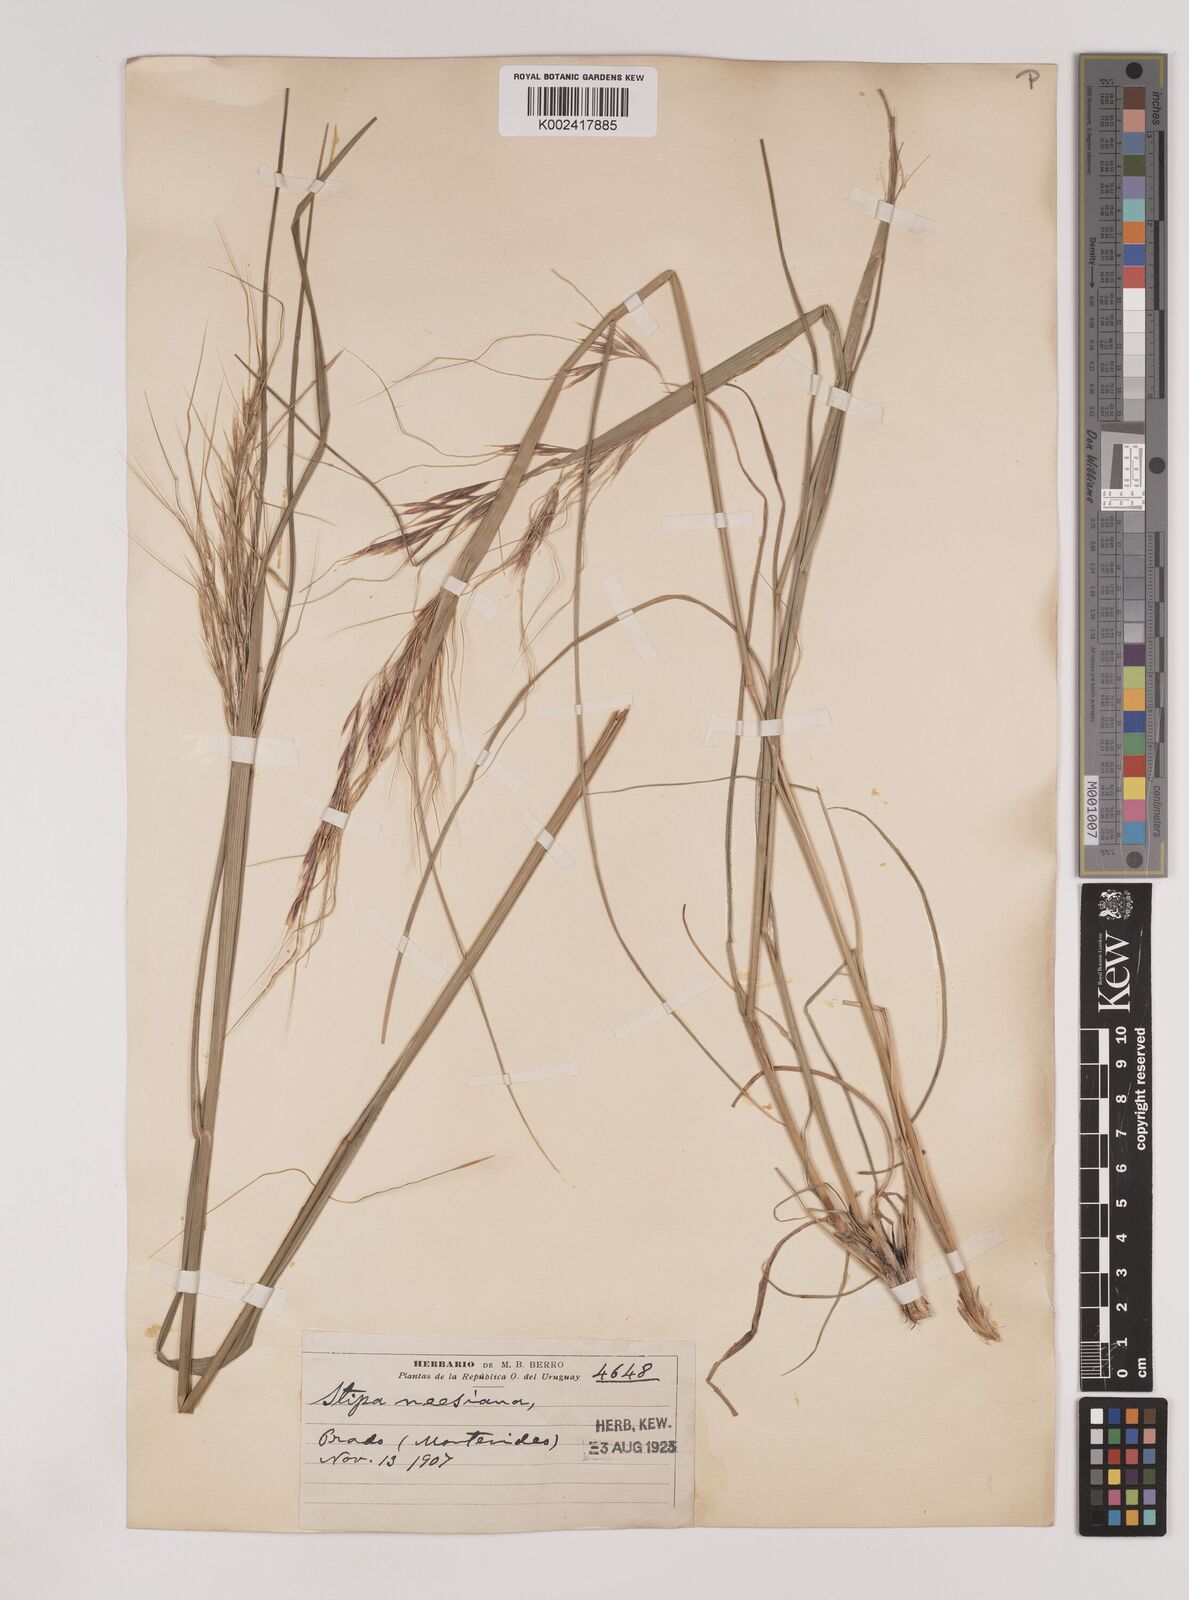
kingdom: Plantae
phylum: Tracheophyta
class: Liliopsida
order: Poales
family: Poaceae
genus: Nassella
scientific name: Nassella neesiana
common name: American needle-grass
